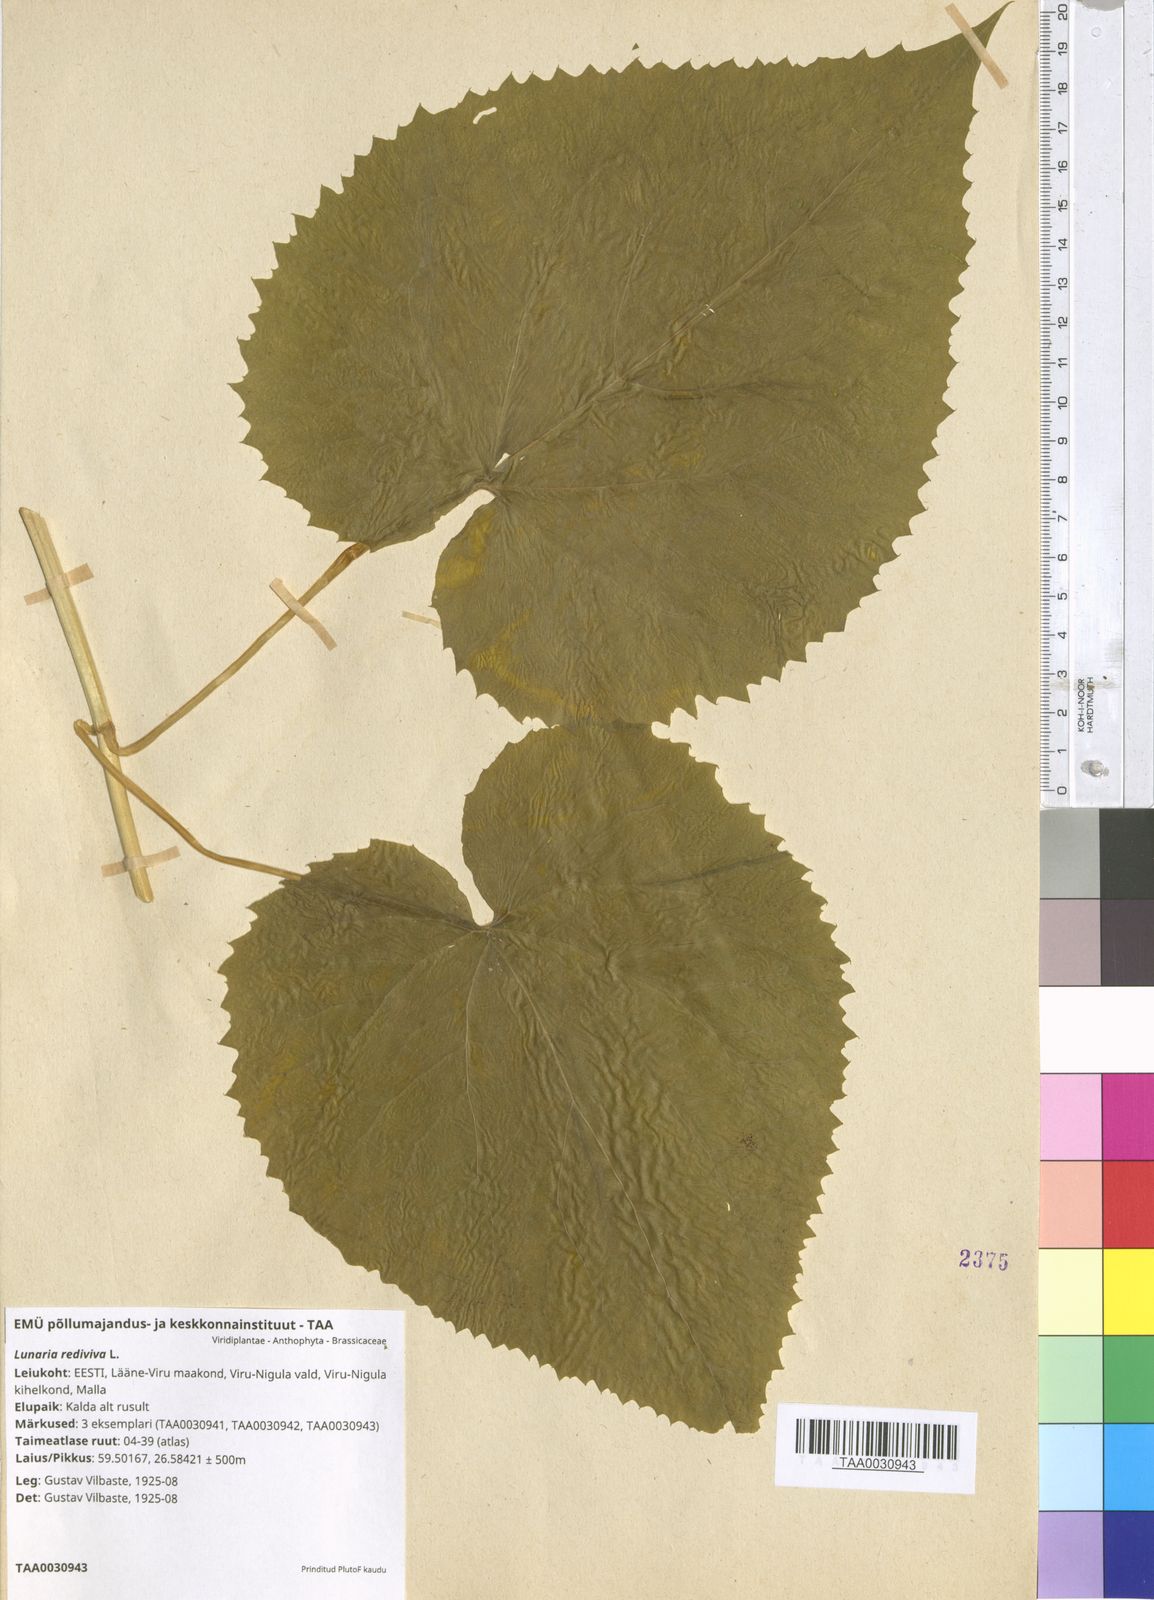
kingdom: Plantae
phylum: Tracheophyta
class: Magnoliopsida
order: Brassicales
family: Brassicaceae
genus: Lunaria
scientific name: Lunaria rediviva
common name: Perennial honesty
